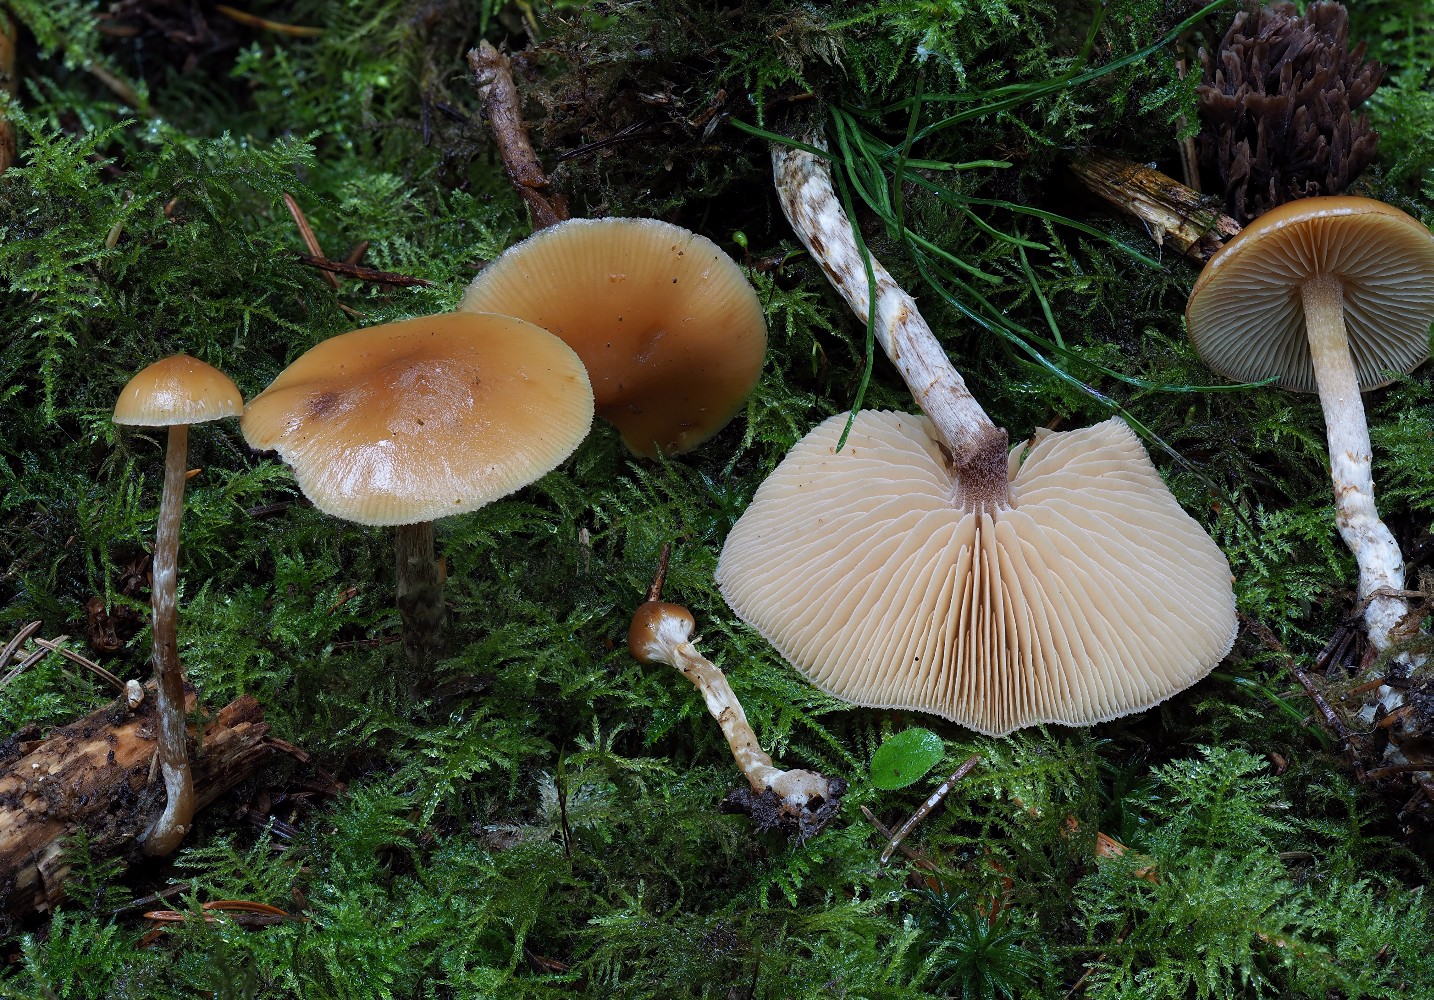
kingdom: Fungi
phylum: Basidiomycota
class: Agaricomycetes
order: Agaricales
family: Hymenogastraceae
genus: Galerina
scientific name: Galerina sideroides
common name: træflis-hjelmhat
